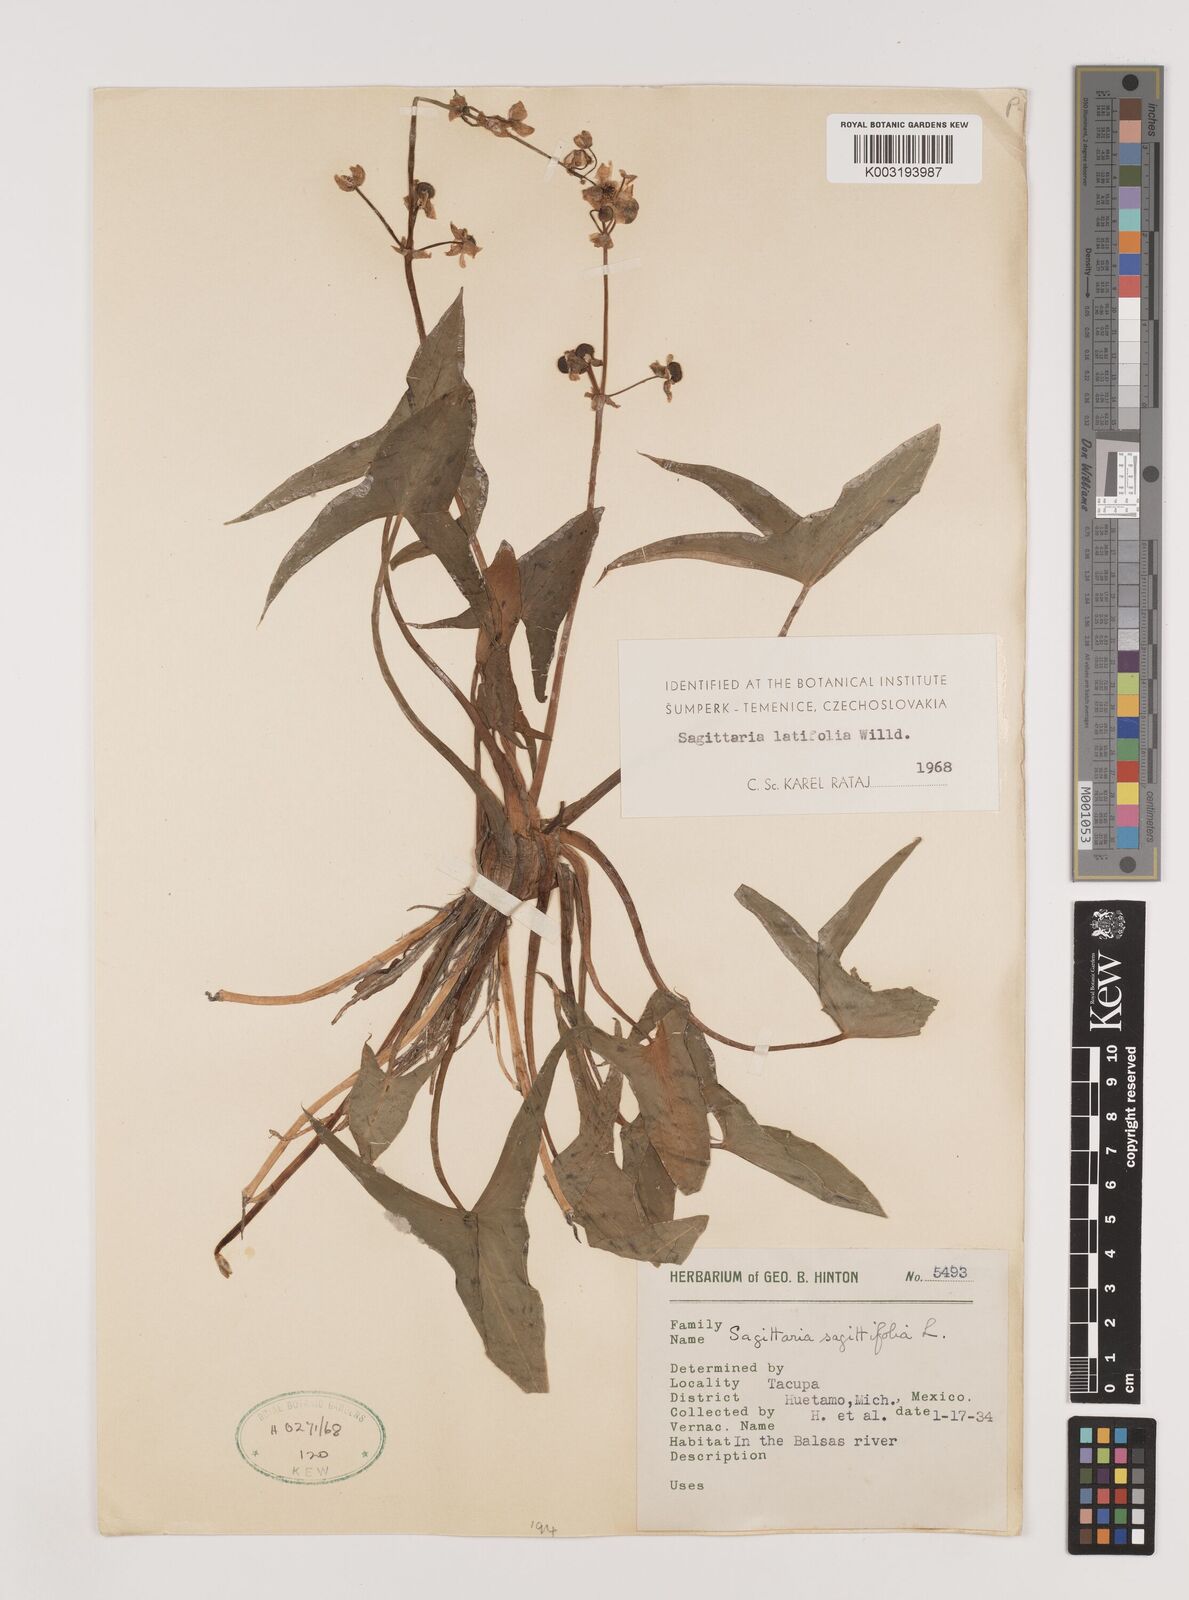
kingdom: Plantae
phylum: Tracheophyta
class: Liliopsida
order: Alismatales
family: Alismataceae
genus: Sagittaria
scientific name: Sagittaria latifolia
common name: Duck-potato
